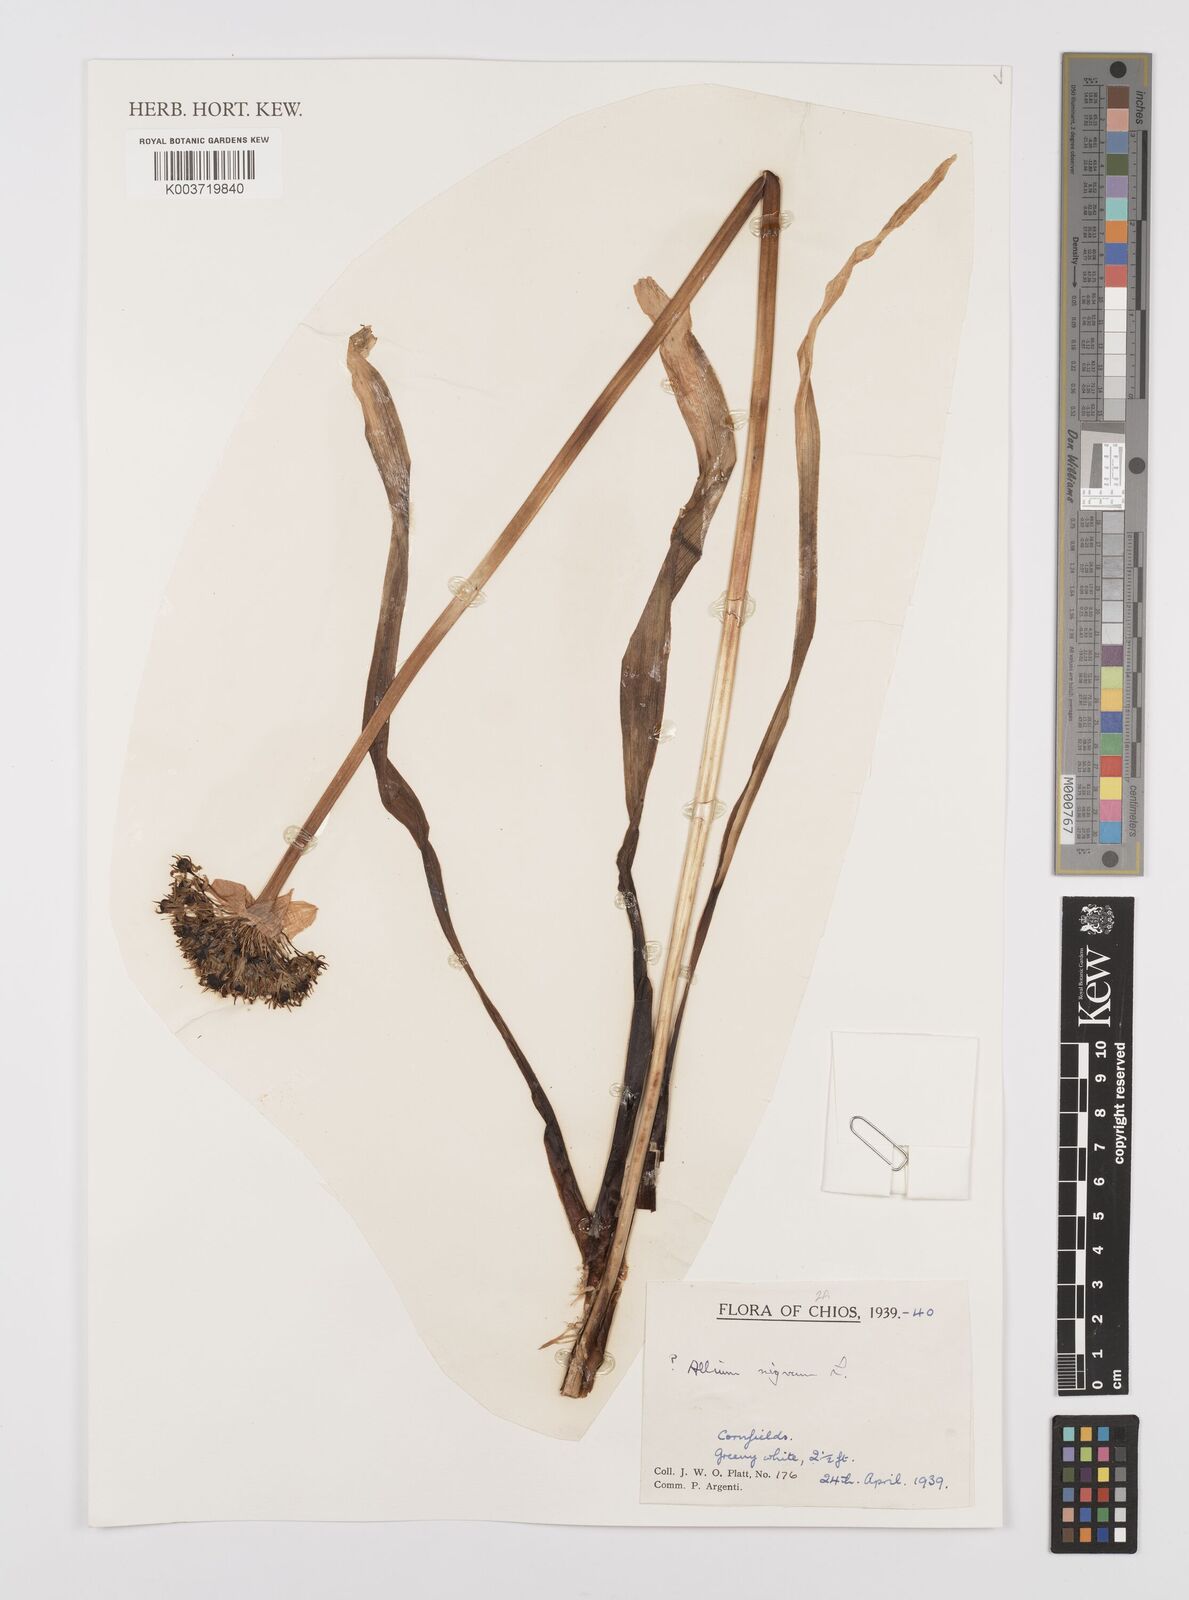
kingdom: Plantae
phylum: Tracheophyta
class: Liliopsida
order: Asparagales
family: Amaryllidaceae
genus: Allium
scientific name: Allium nigrum
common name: Black garlic
